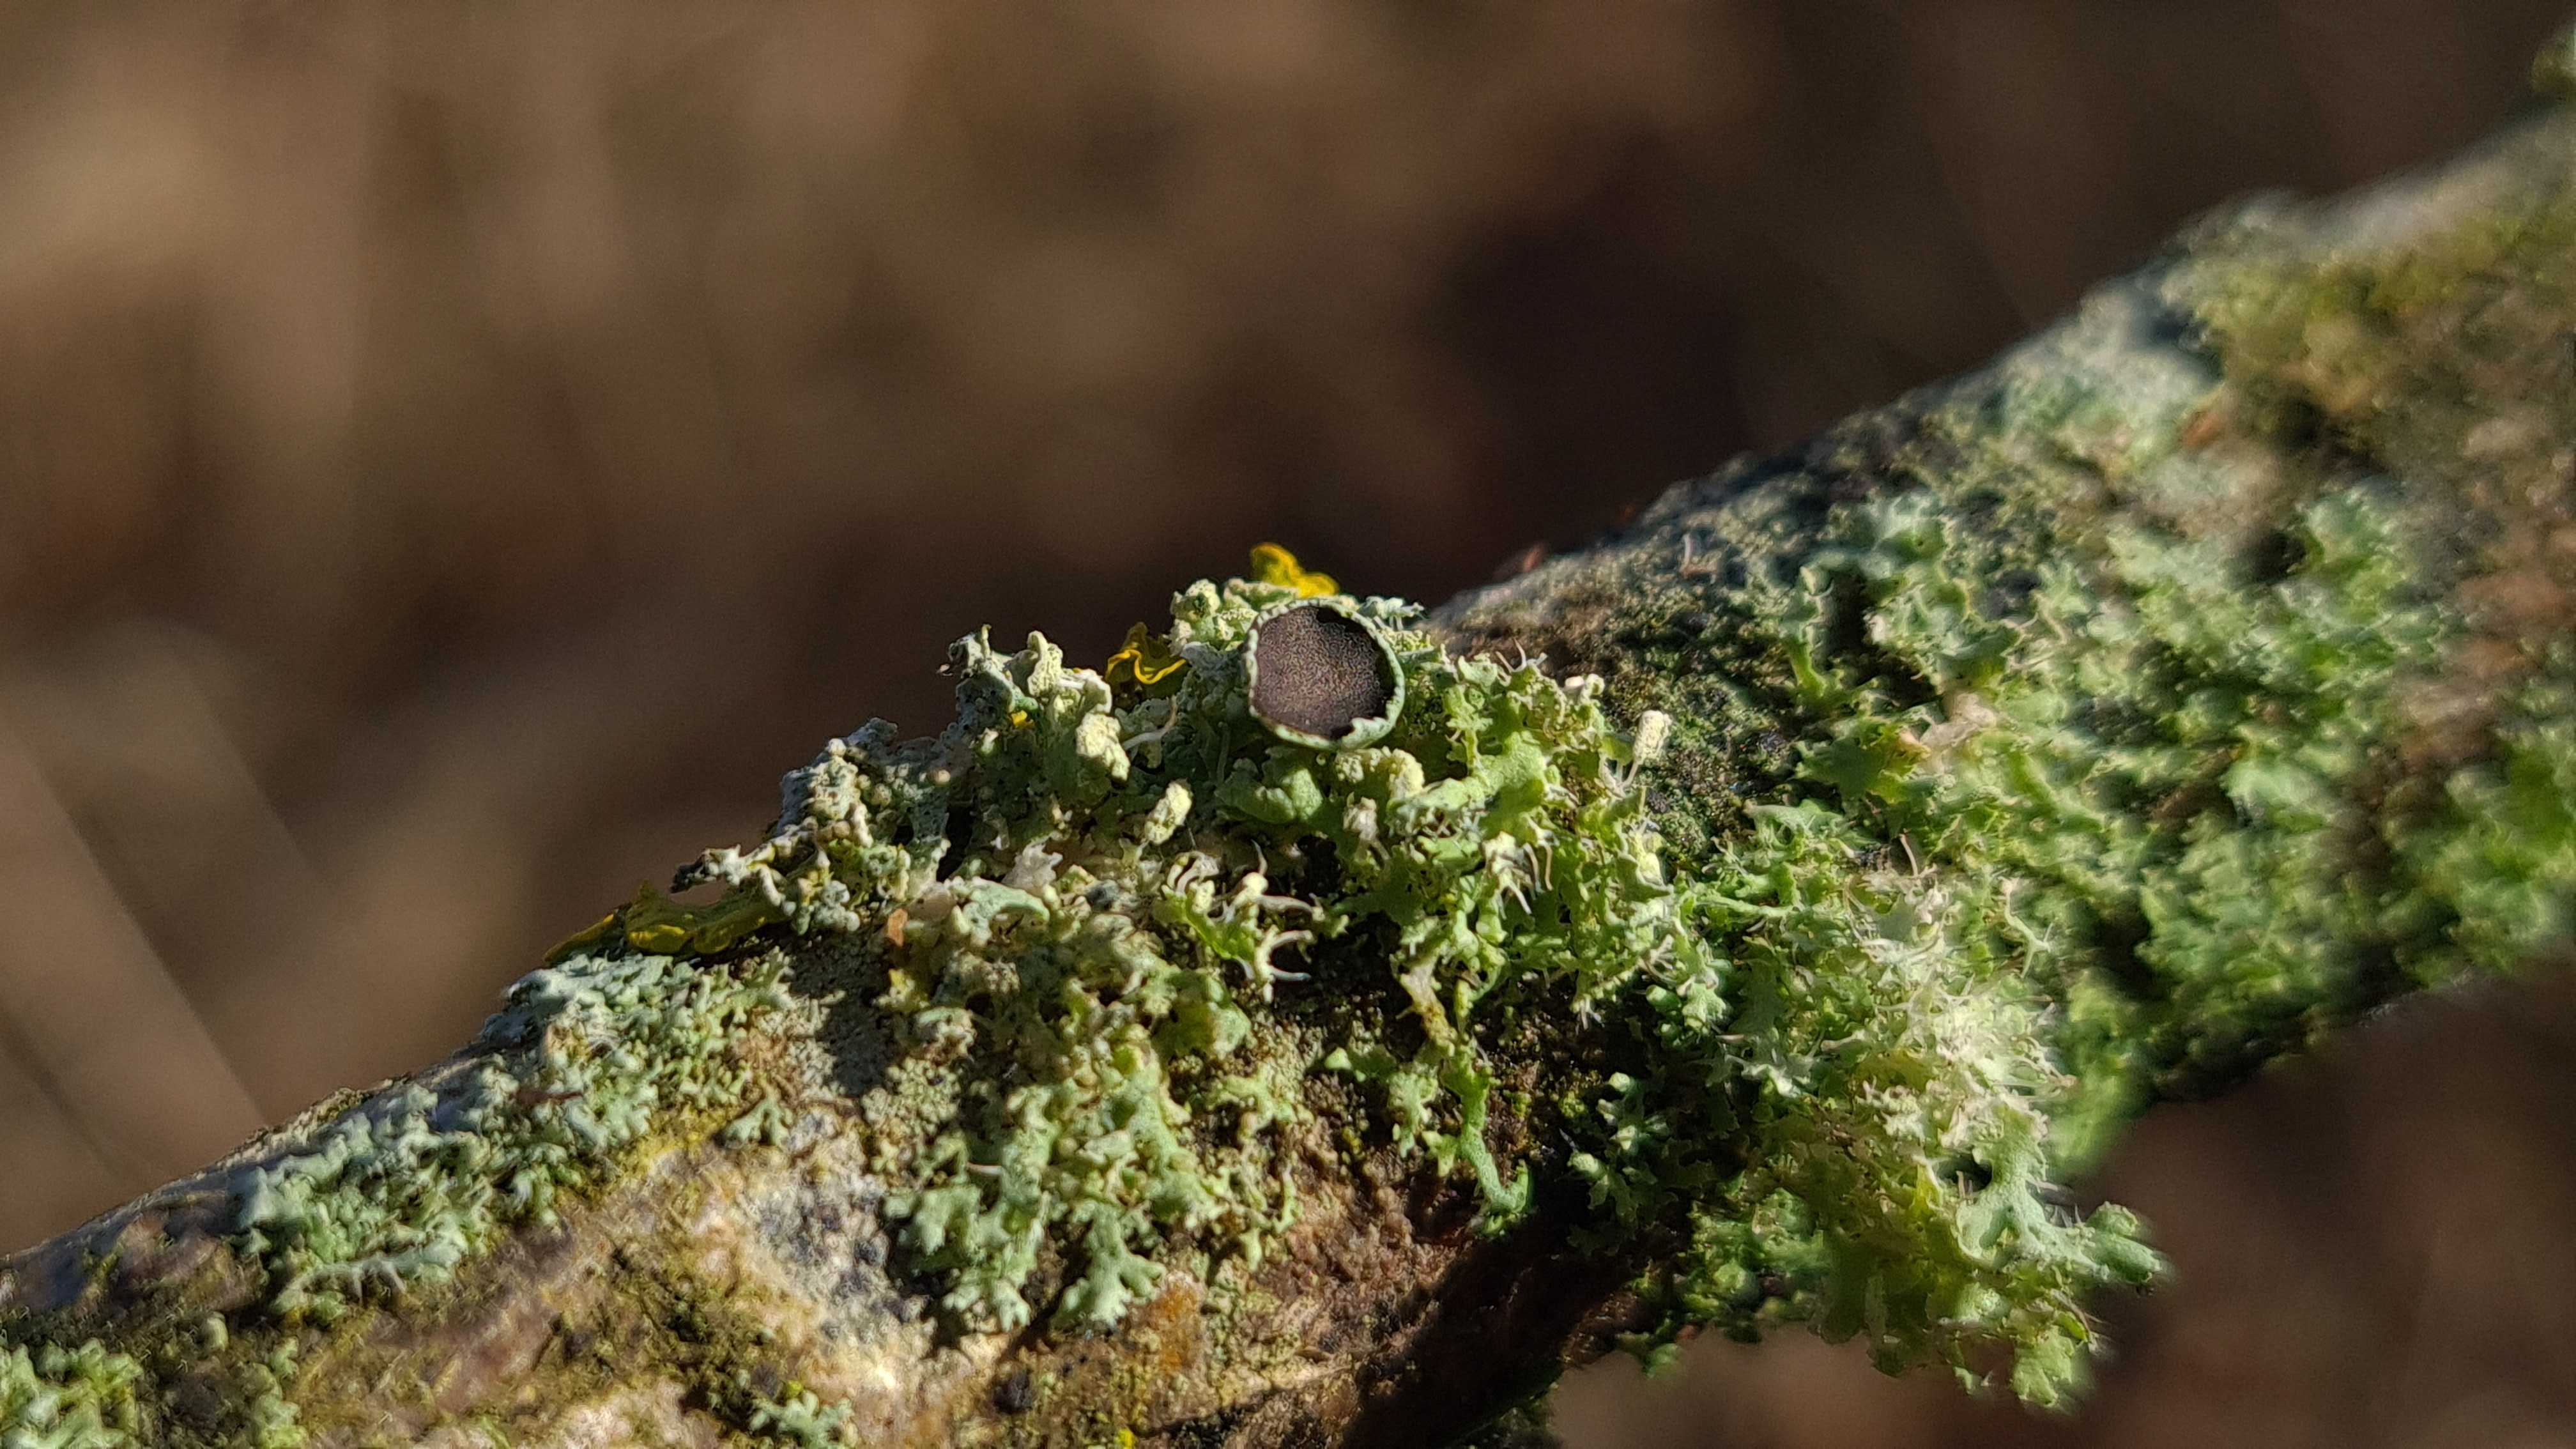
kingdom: Fungi
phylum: Ascomycota
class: Lecanoromycetes
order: Caliciales
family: Physciaceae
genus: Physcia
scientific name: Physcia tenella
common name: spæd rosetlav
